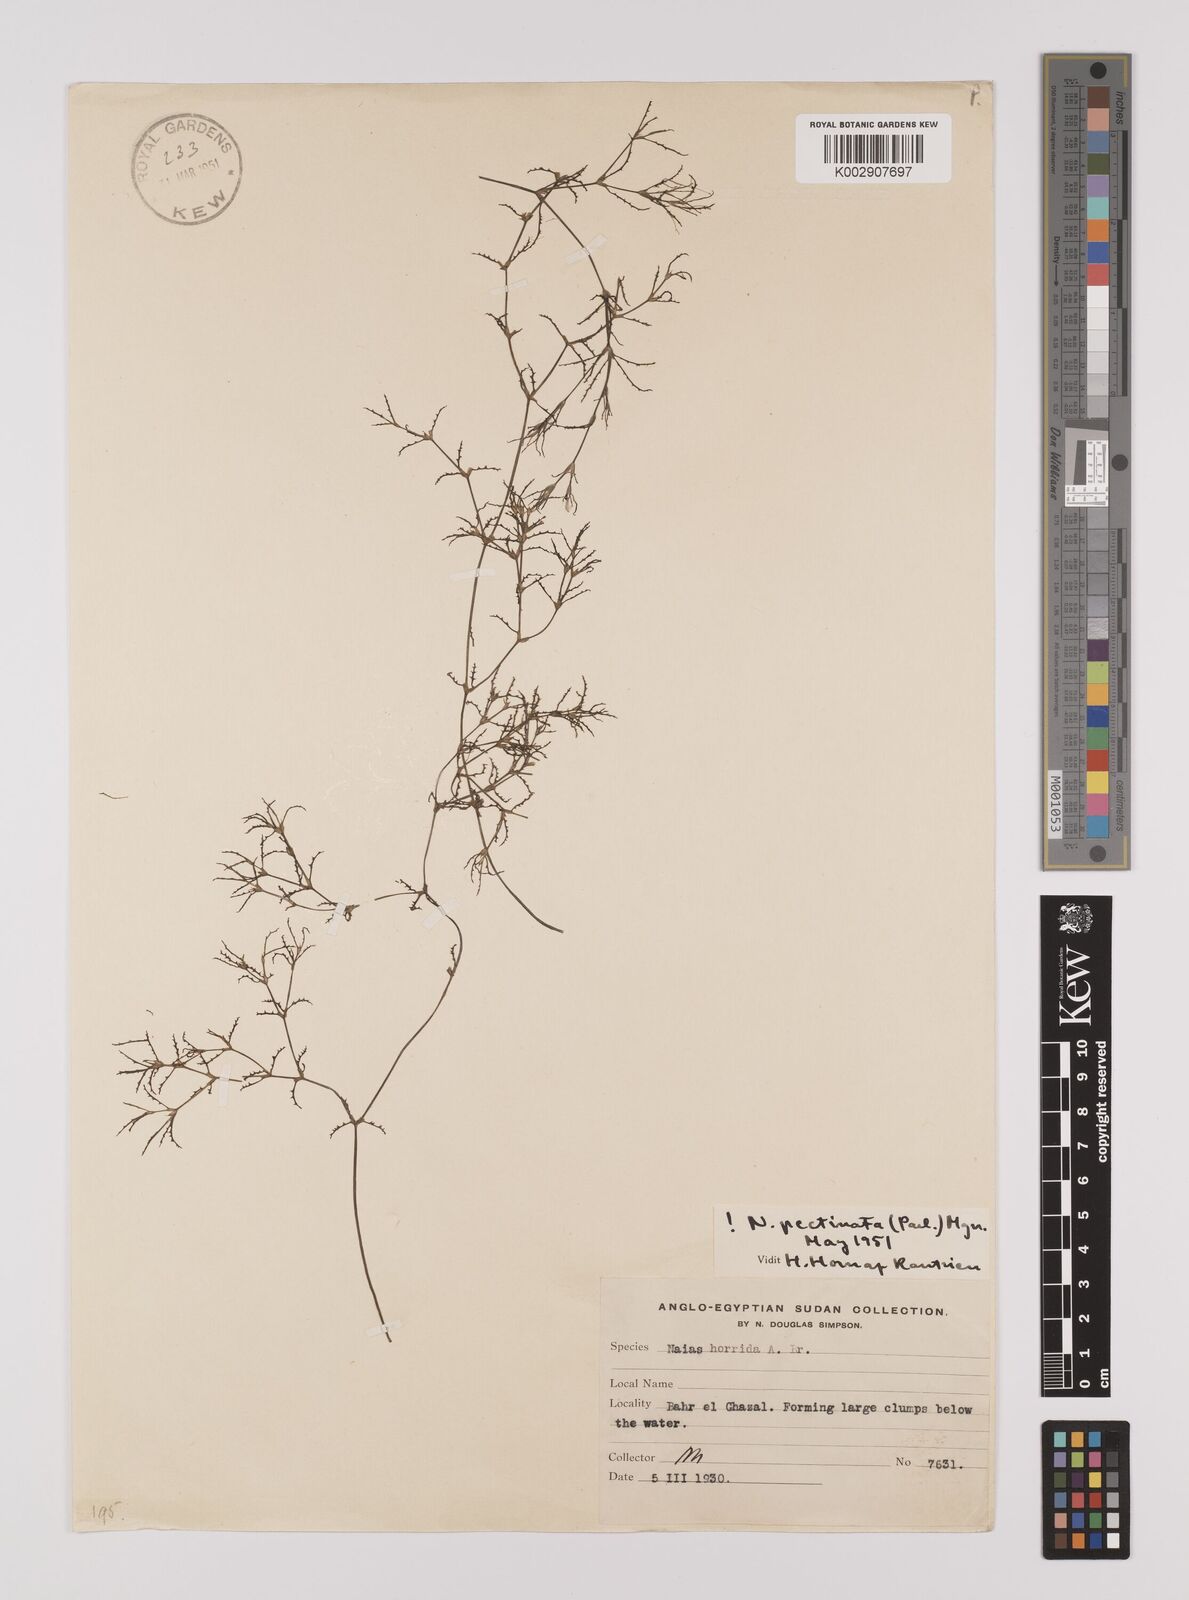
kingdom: Plantae
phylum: Tracheophyta
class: Liliopsida
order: Alismatales
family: Hydrocharitaceae
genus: Najas
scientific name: Najas horrida
